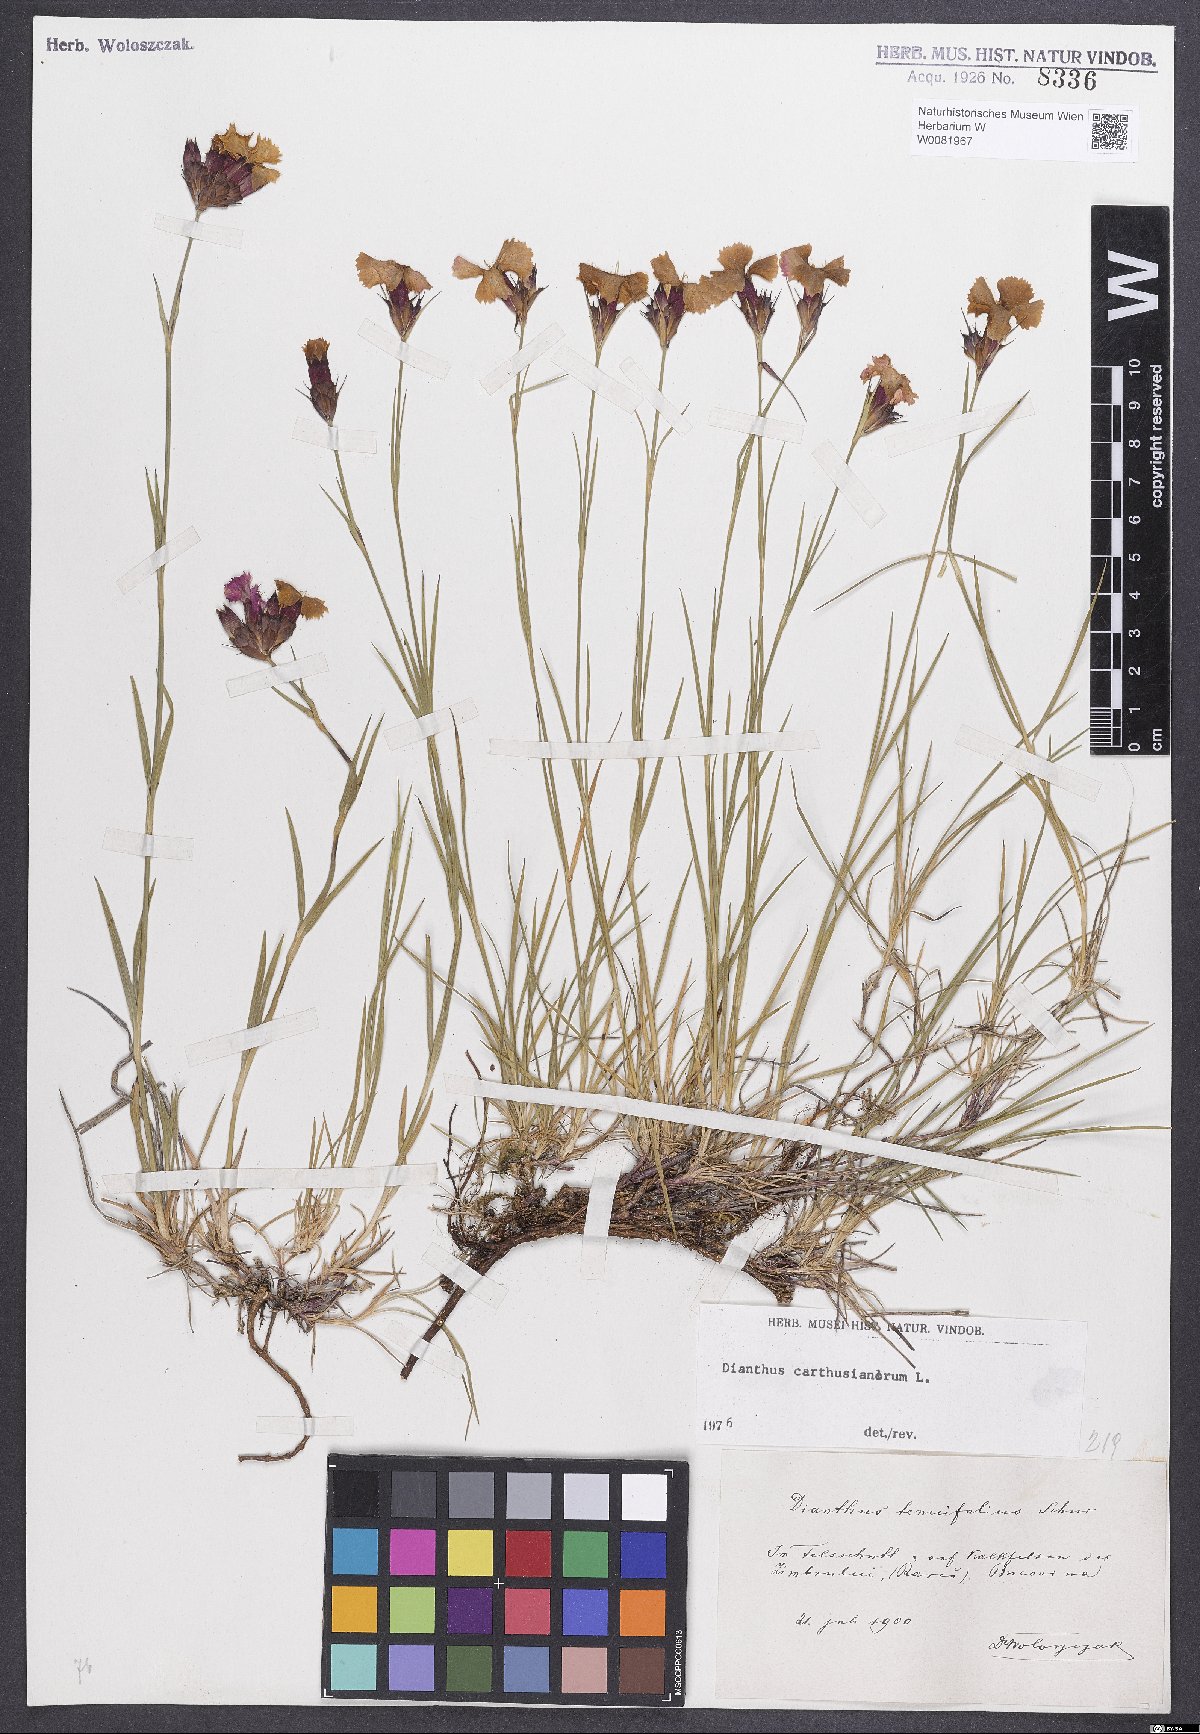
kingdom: Plantae
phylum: Tracheophyta
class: Magnoliopsida
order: Caryophyllales
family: Caryophyllaceae
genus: Dianthus
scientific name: Dianthus carthusianorum
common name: Carthusian pink
